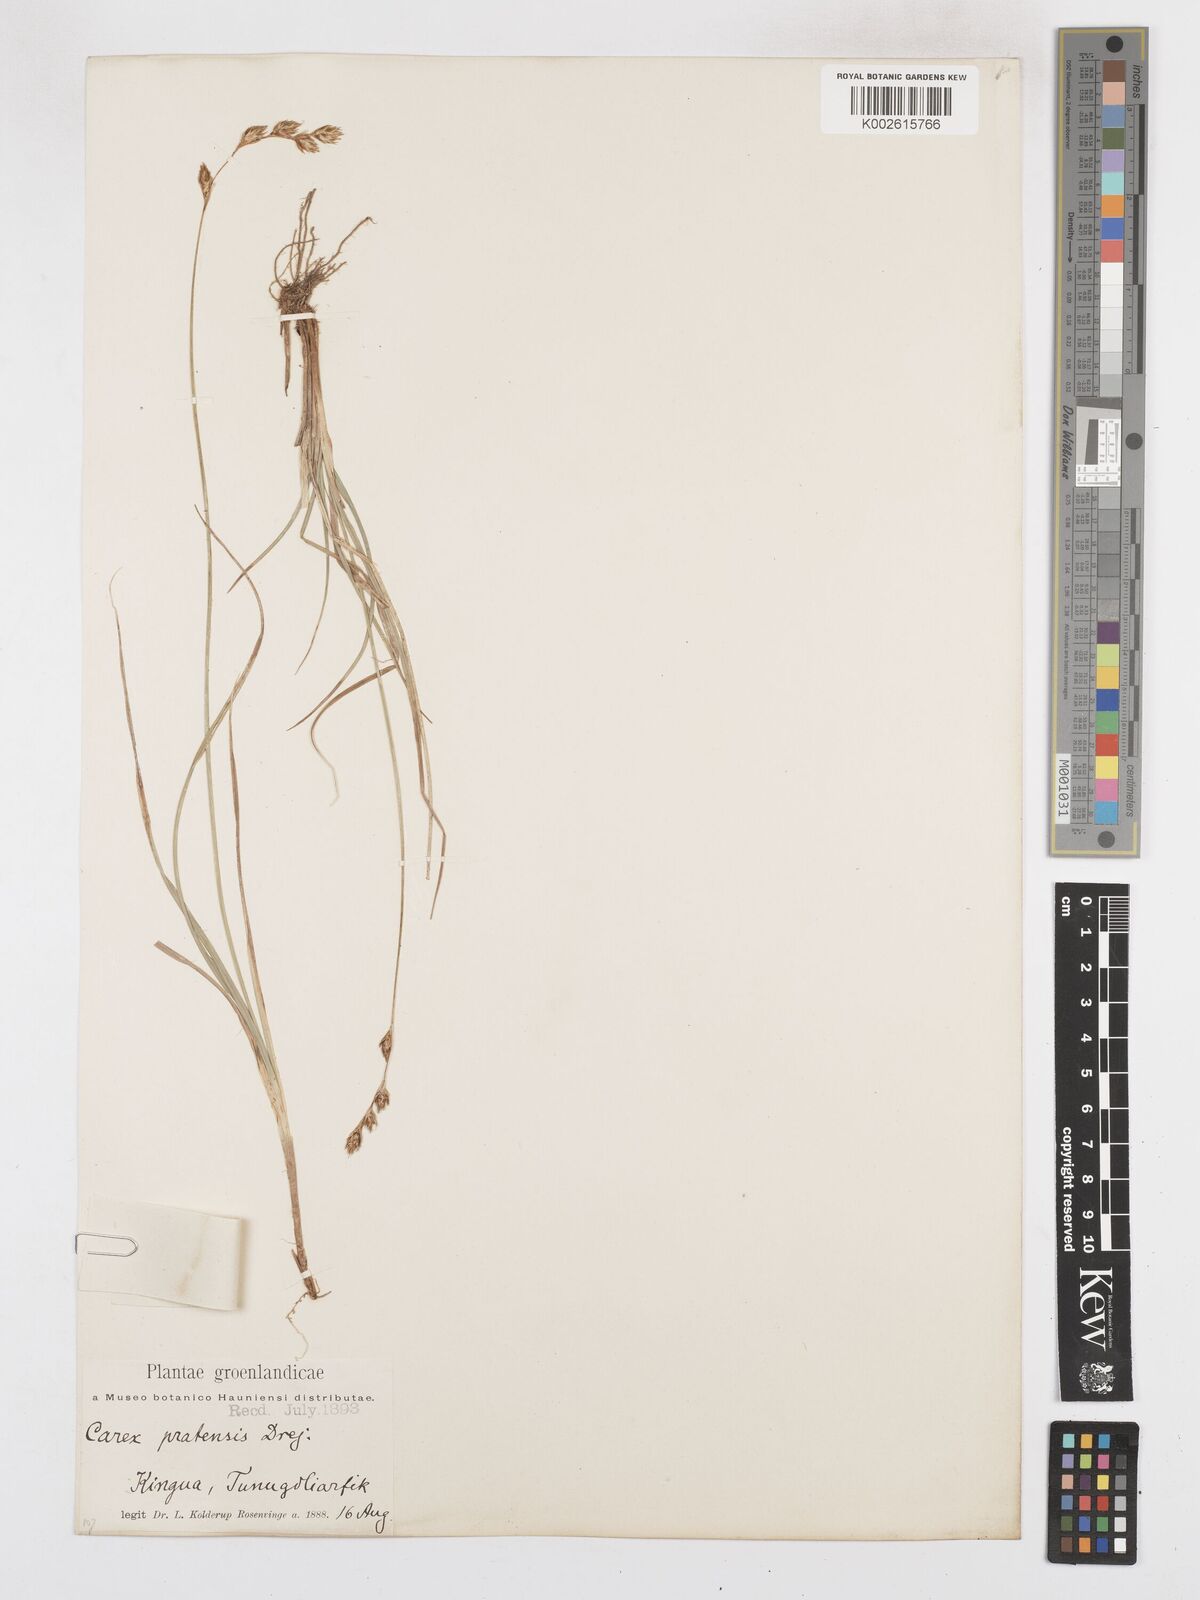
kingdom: Plantae
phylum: Tracheophyta
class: Liliopsida
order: Poales
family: Cyperaceae
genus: Carex
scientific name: Carex praticola
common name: Large-fruited oval sedge
